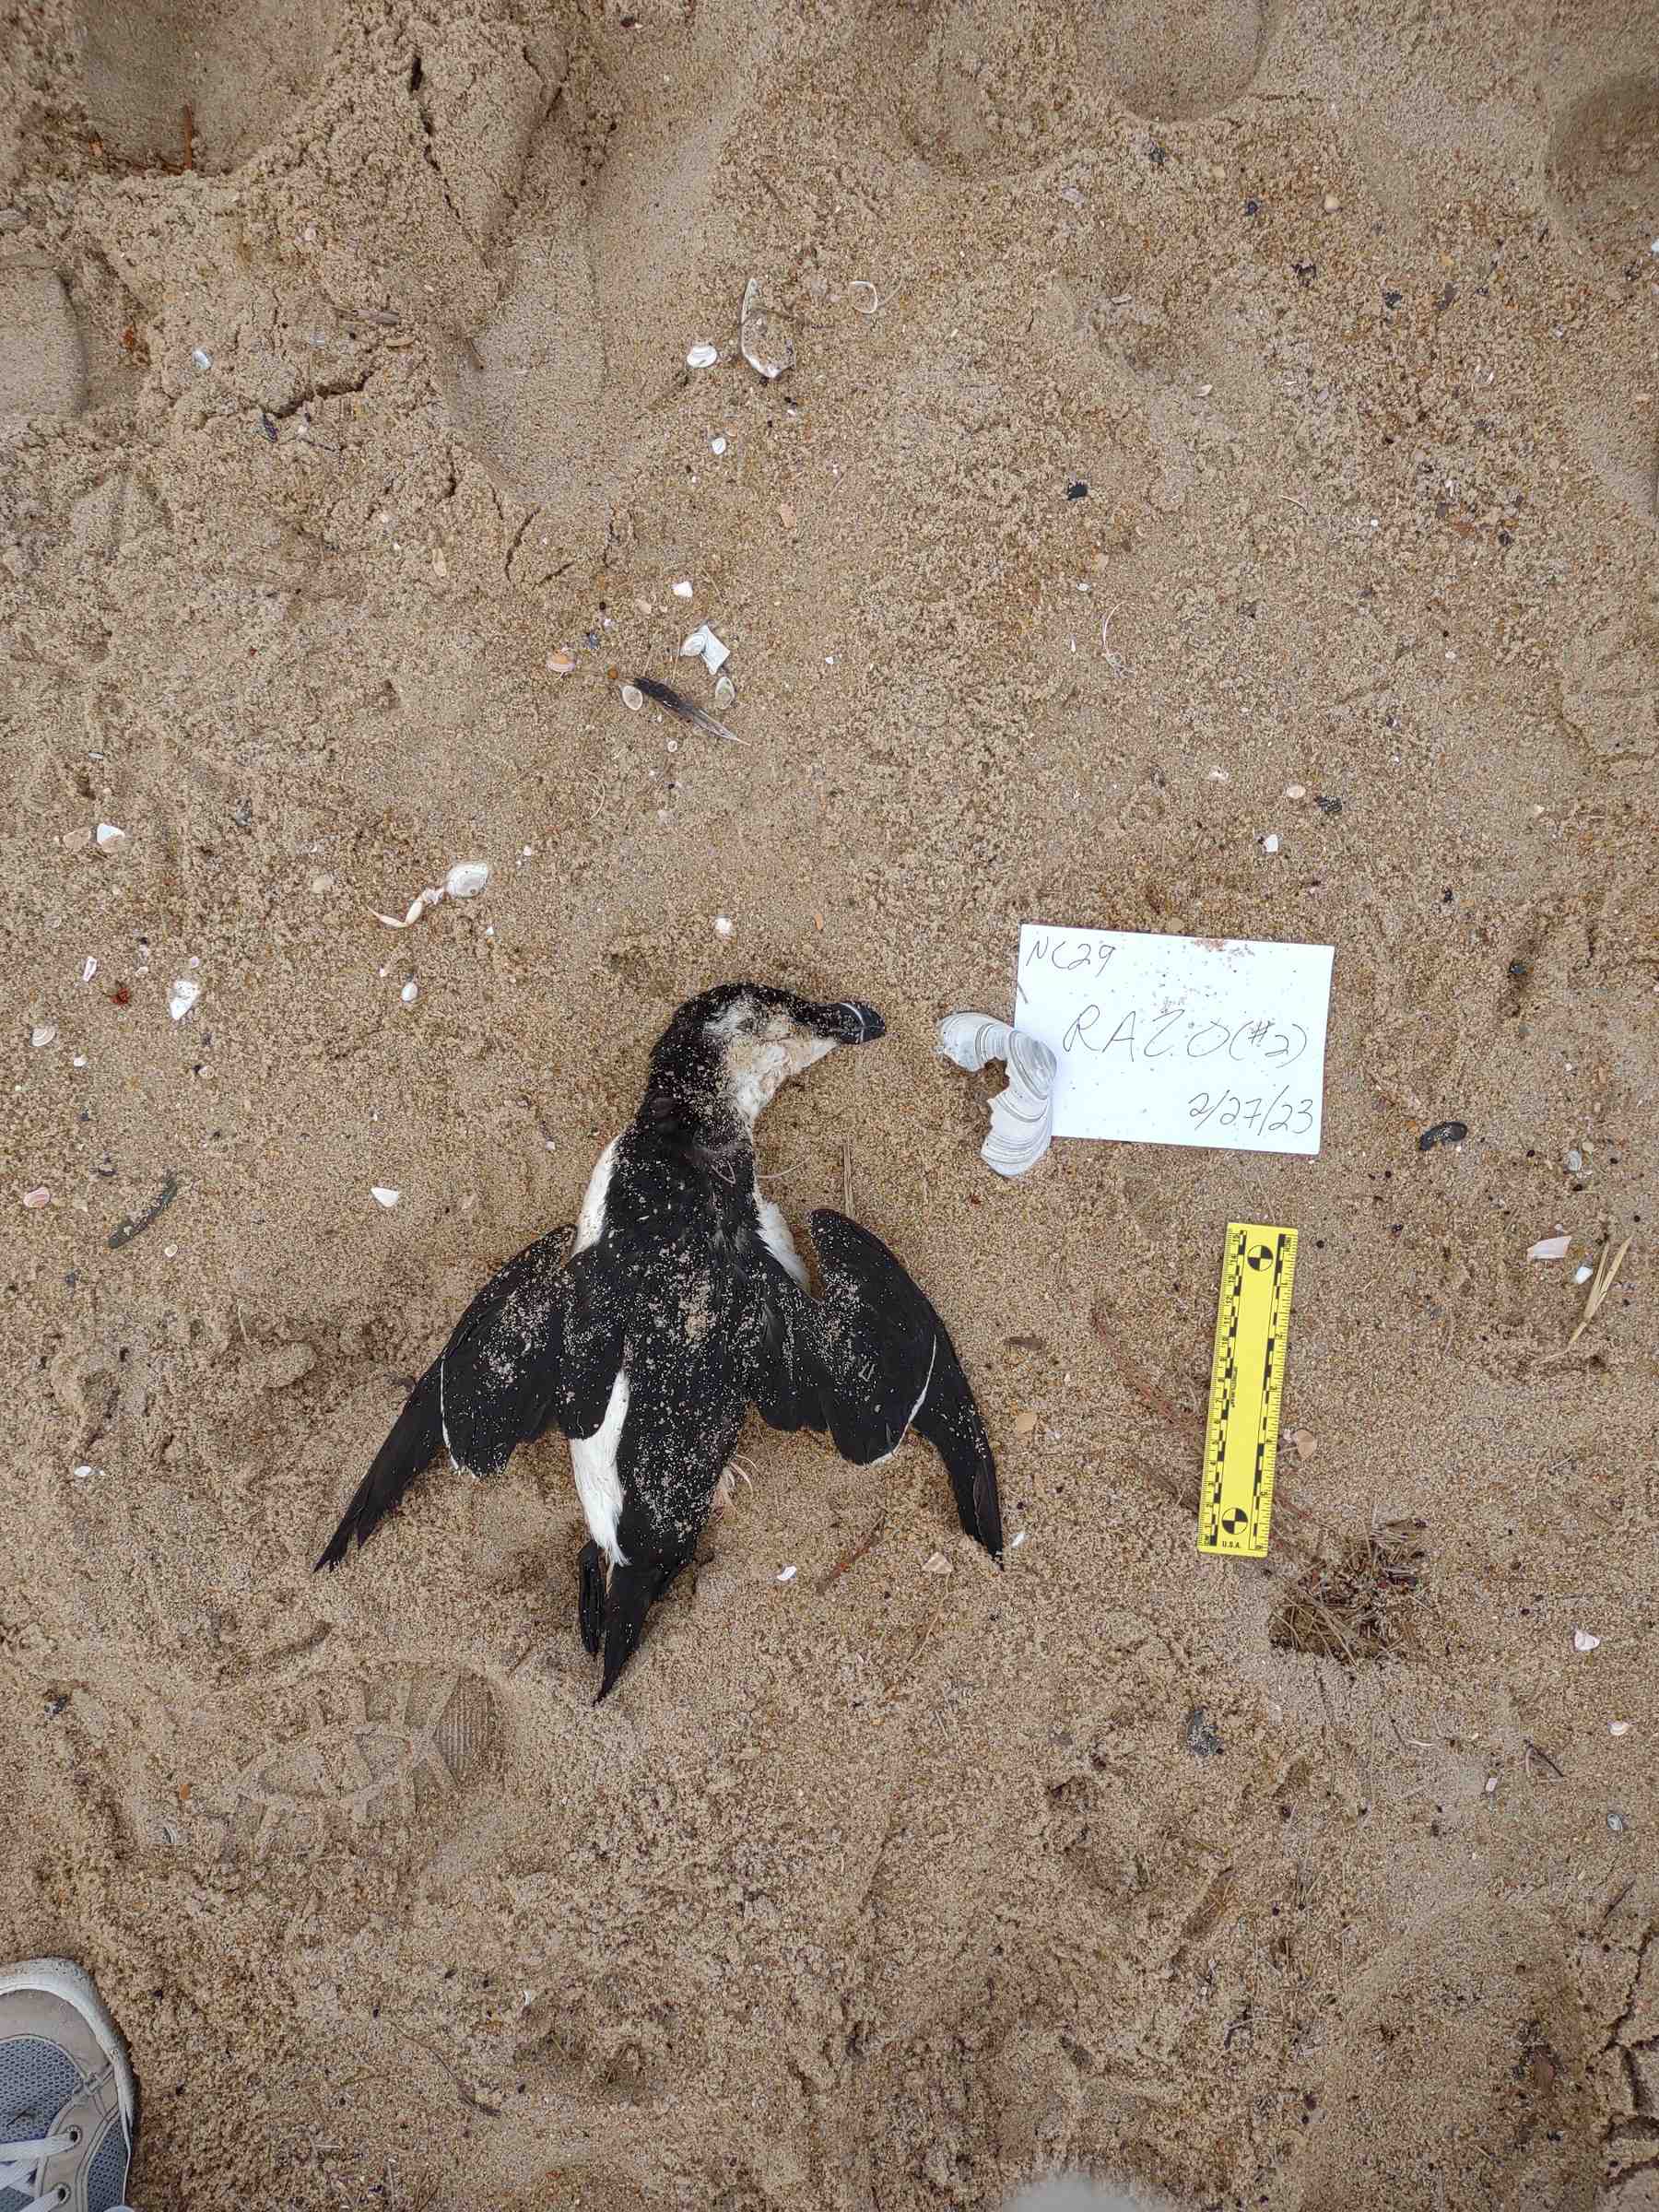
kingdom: Animalia
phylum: Chordata
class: Aves
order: Charadriiformes
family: Alcidae
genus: Alca
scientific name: Alca torda
